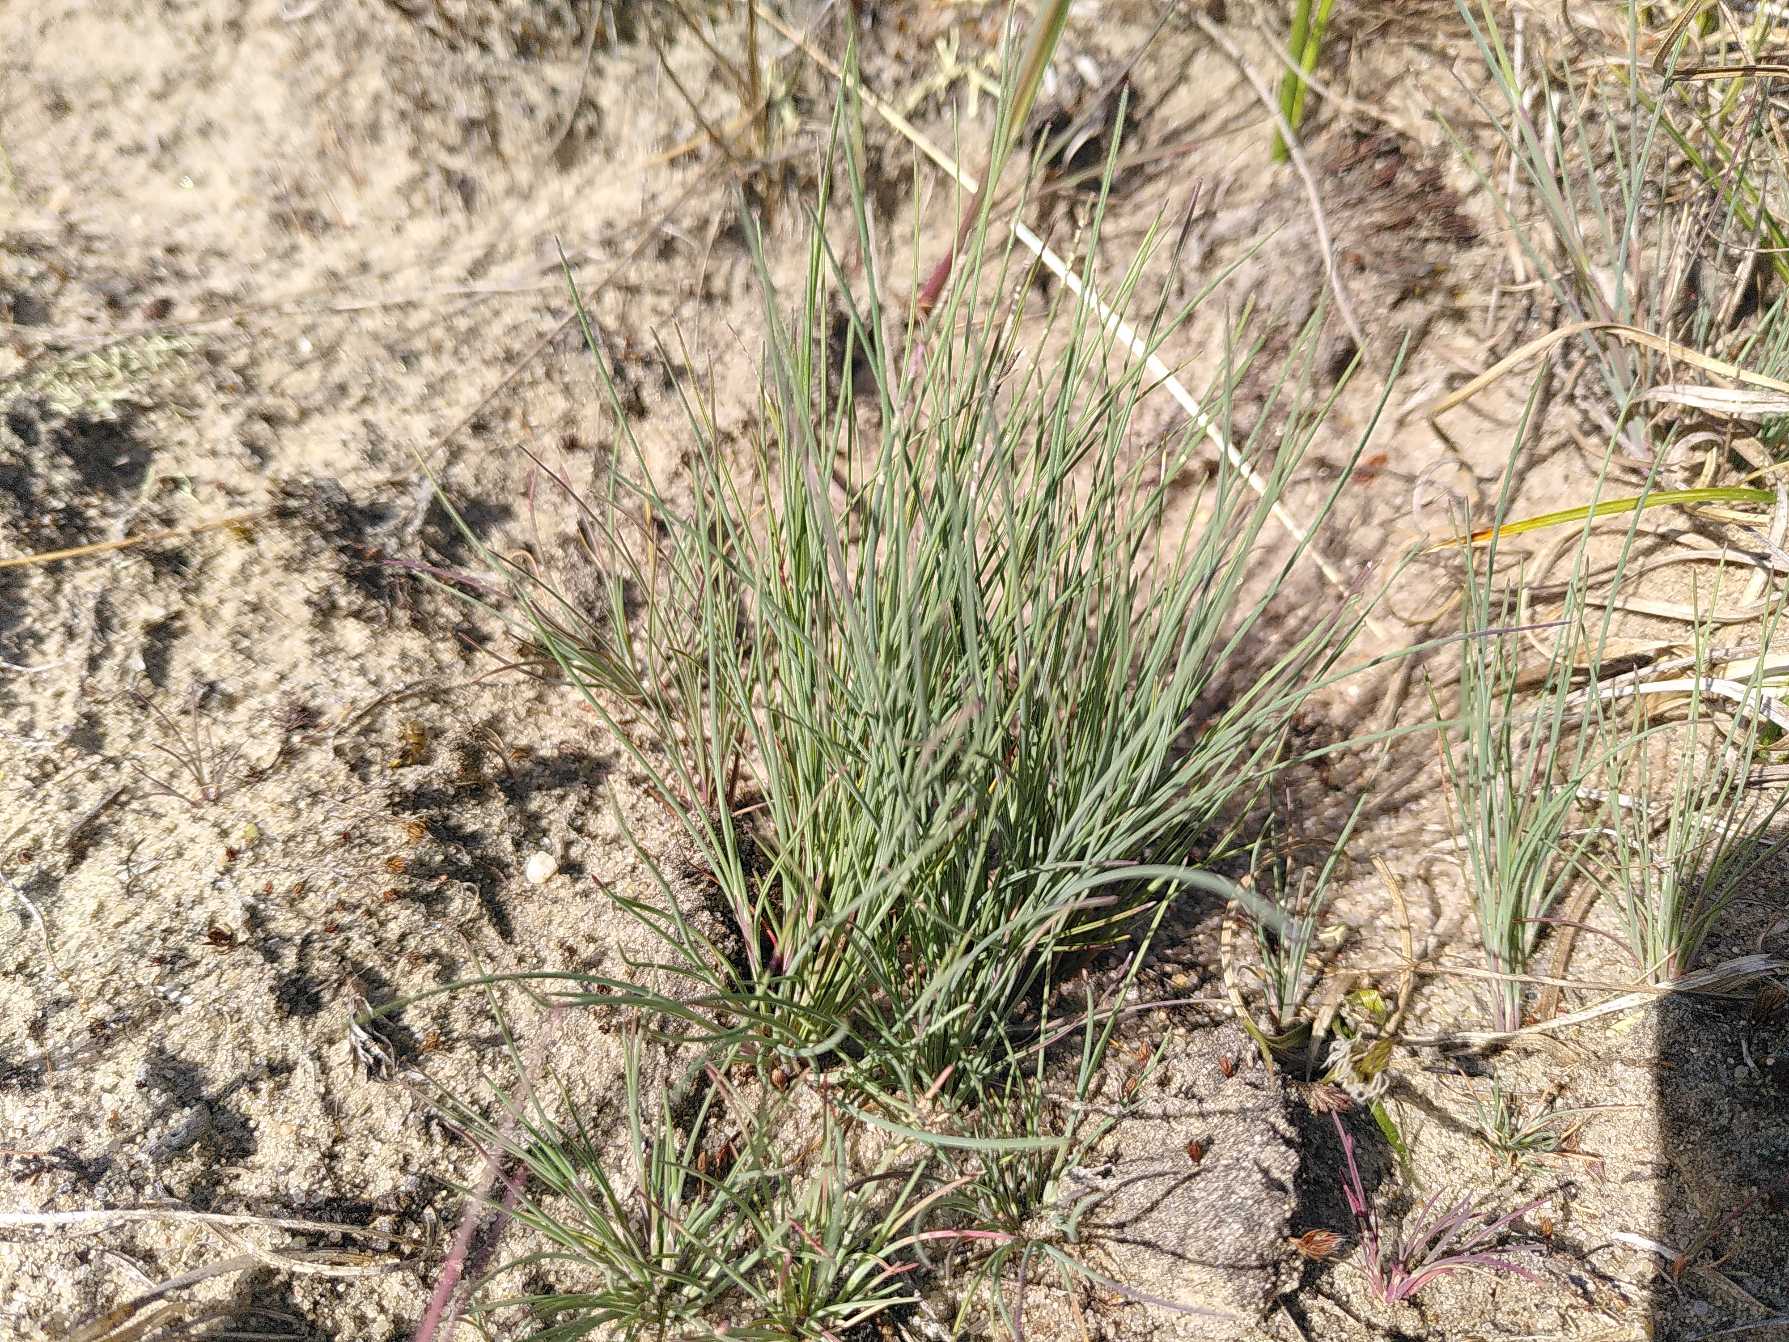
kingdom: Plantae
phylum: Tracheophyta
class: Liliopsida
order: Poales
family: Poaceae
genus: Corynephorus
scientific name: Corynephorus canescens
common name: Sandskæg
